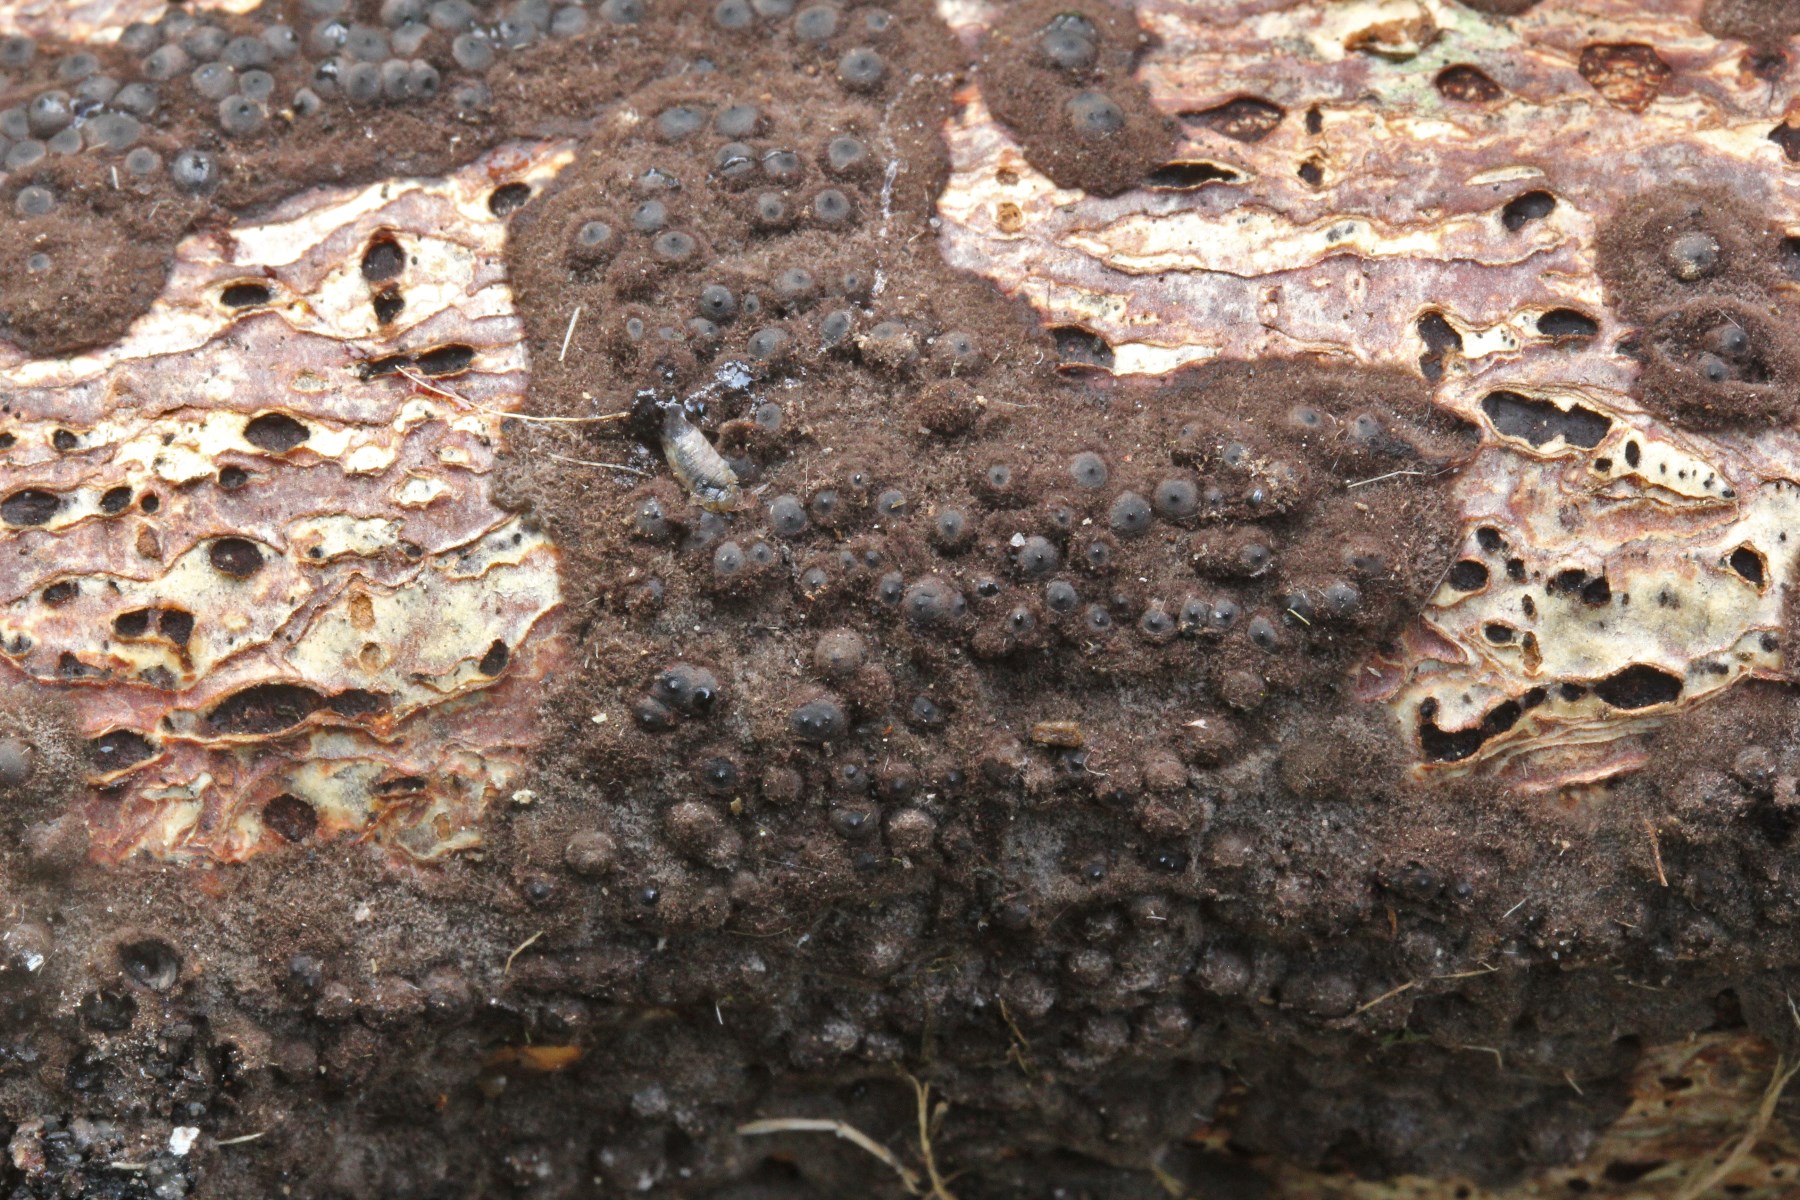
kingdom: Fungi
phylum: Ascomycota
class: Sordariomycetes
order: Xylariales
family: Xylariaceae
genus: Rosellinia
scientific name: Rosellinia aquila
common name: tykskallet kulkaviar
